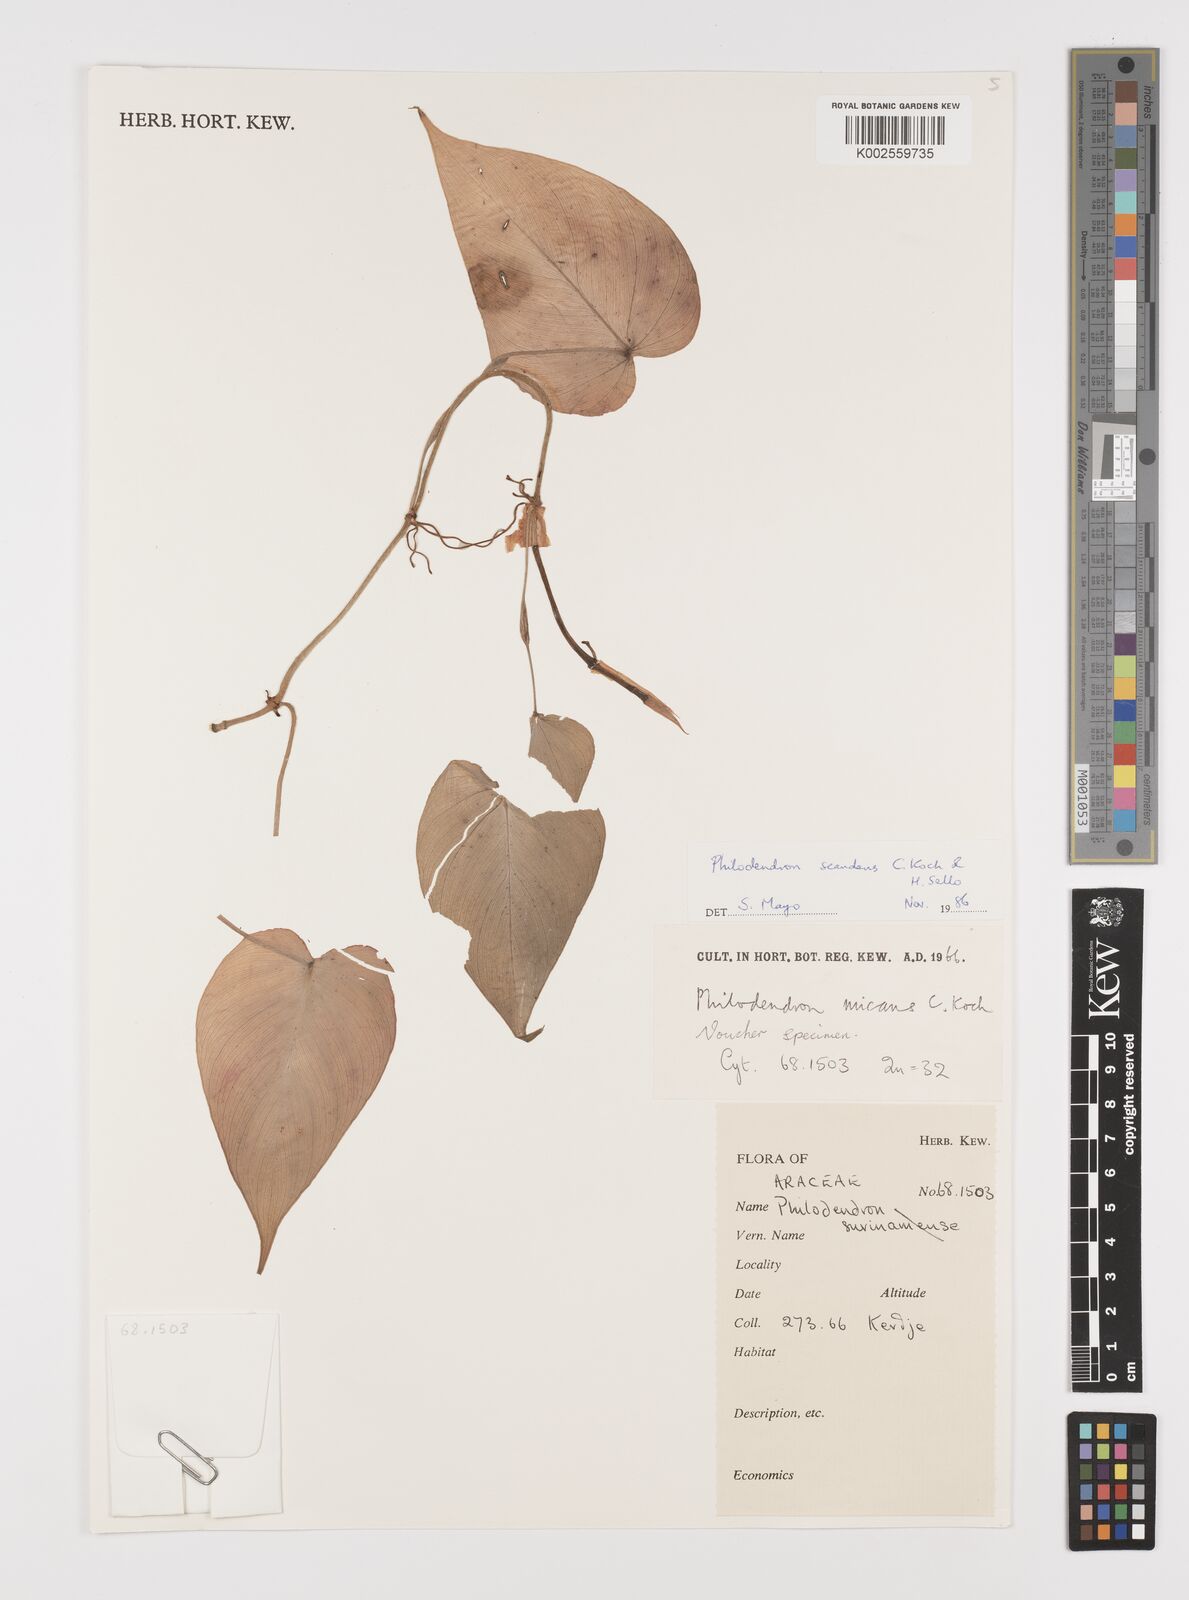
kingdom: Plantae
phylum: Tracheophyta
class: Liliopsida
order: Alismatales
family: Araceae
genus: Philodendron
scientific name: Philodendron hederaceum
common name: Vilevine
